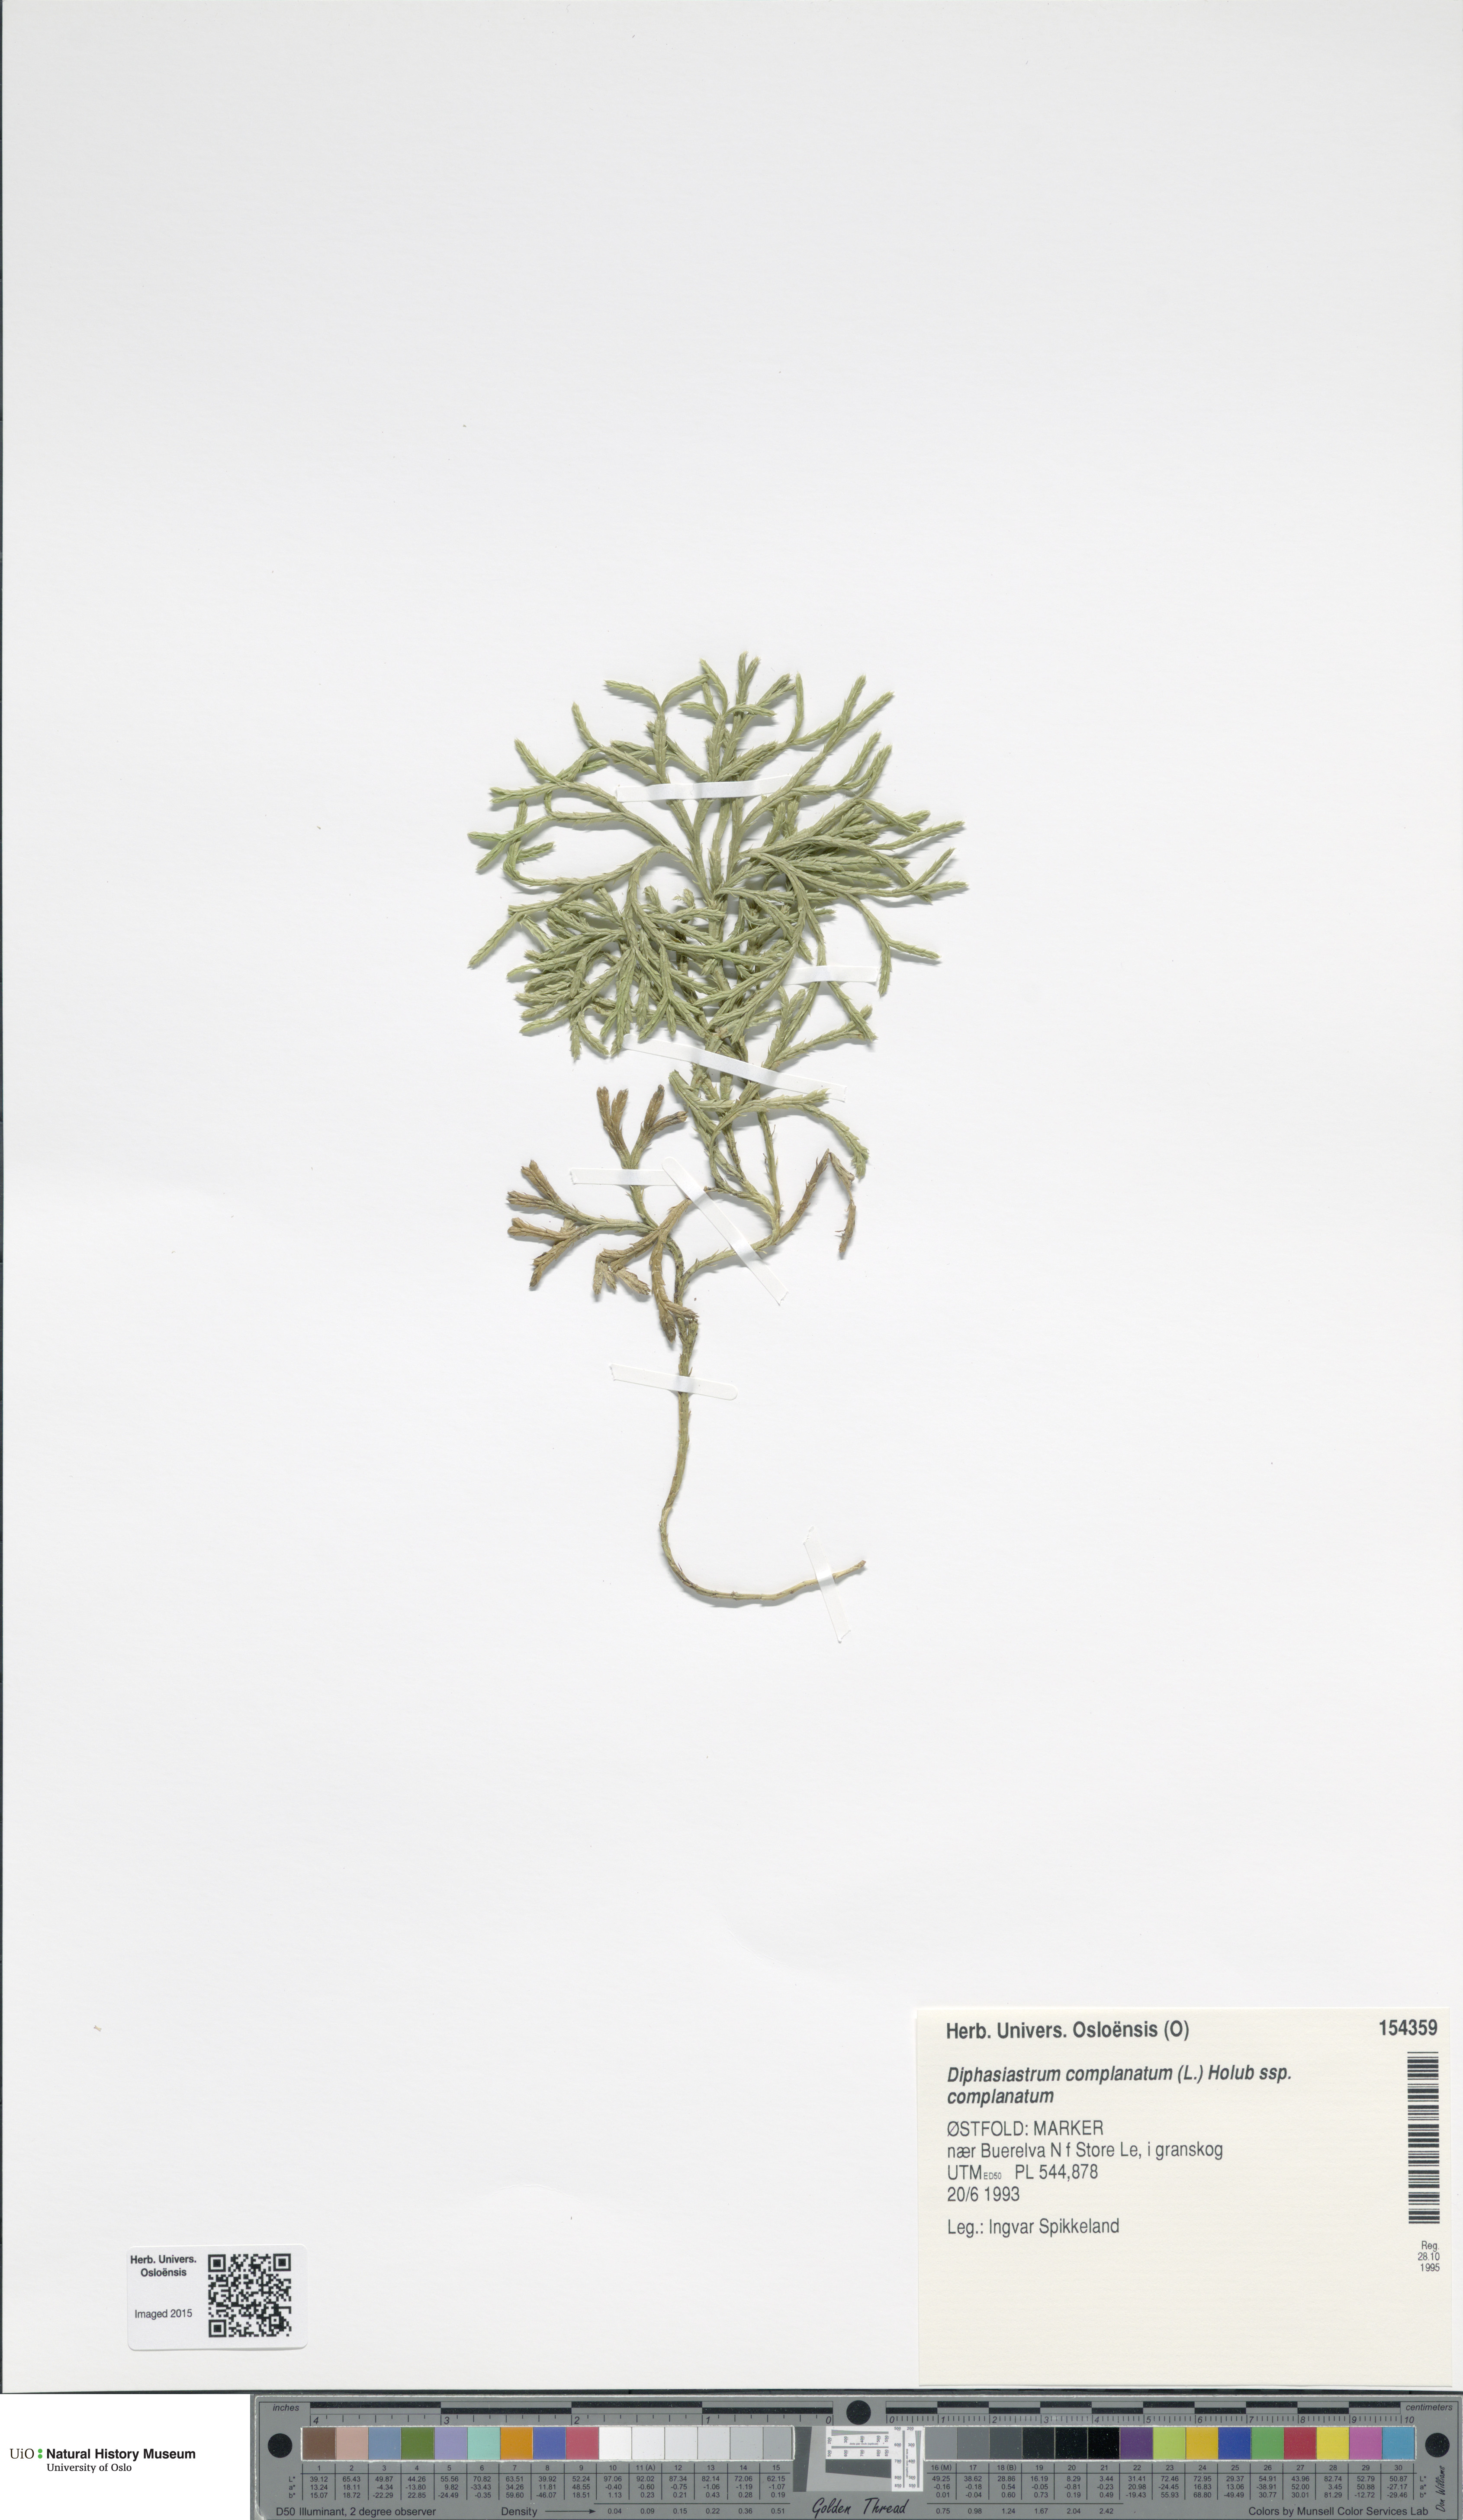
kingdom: Plantae
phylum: Tracheophyta
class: Lycopodiopsida
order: Lycopodiales
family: Lycopodiaceae
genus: Diphasiastrum
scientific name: Diphasiastrum complanatum
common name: Northern running-pine
